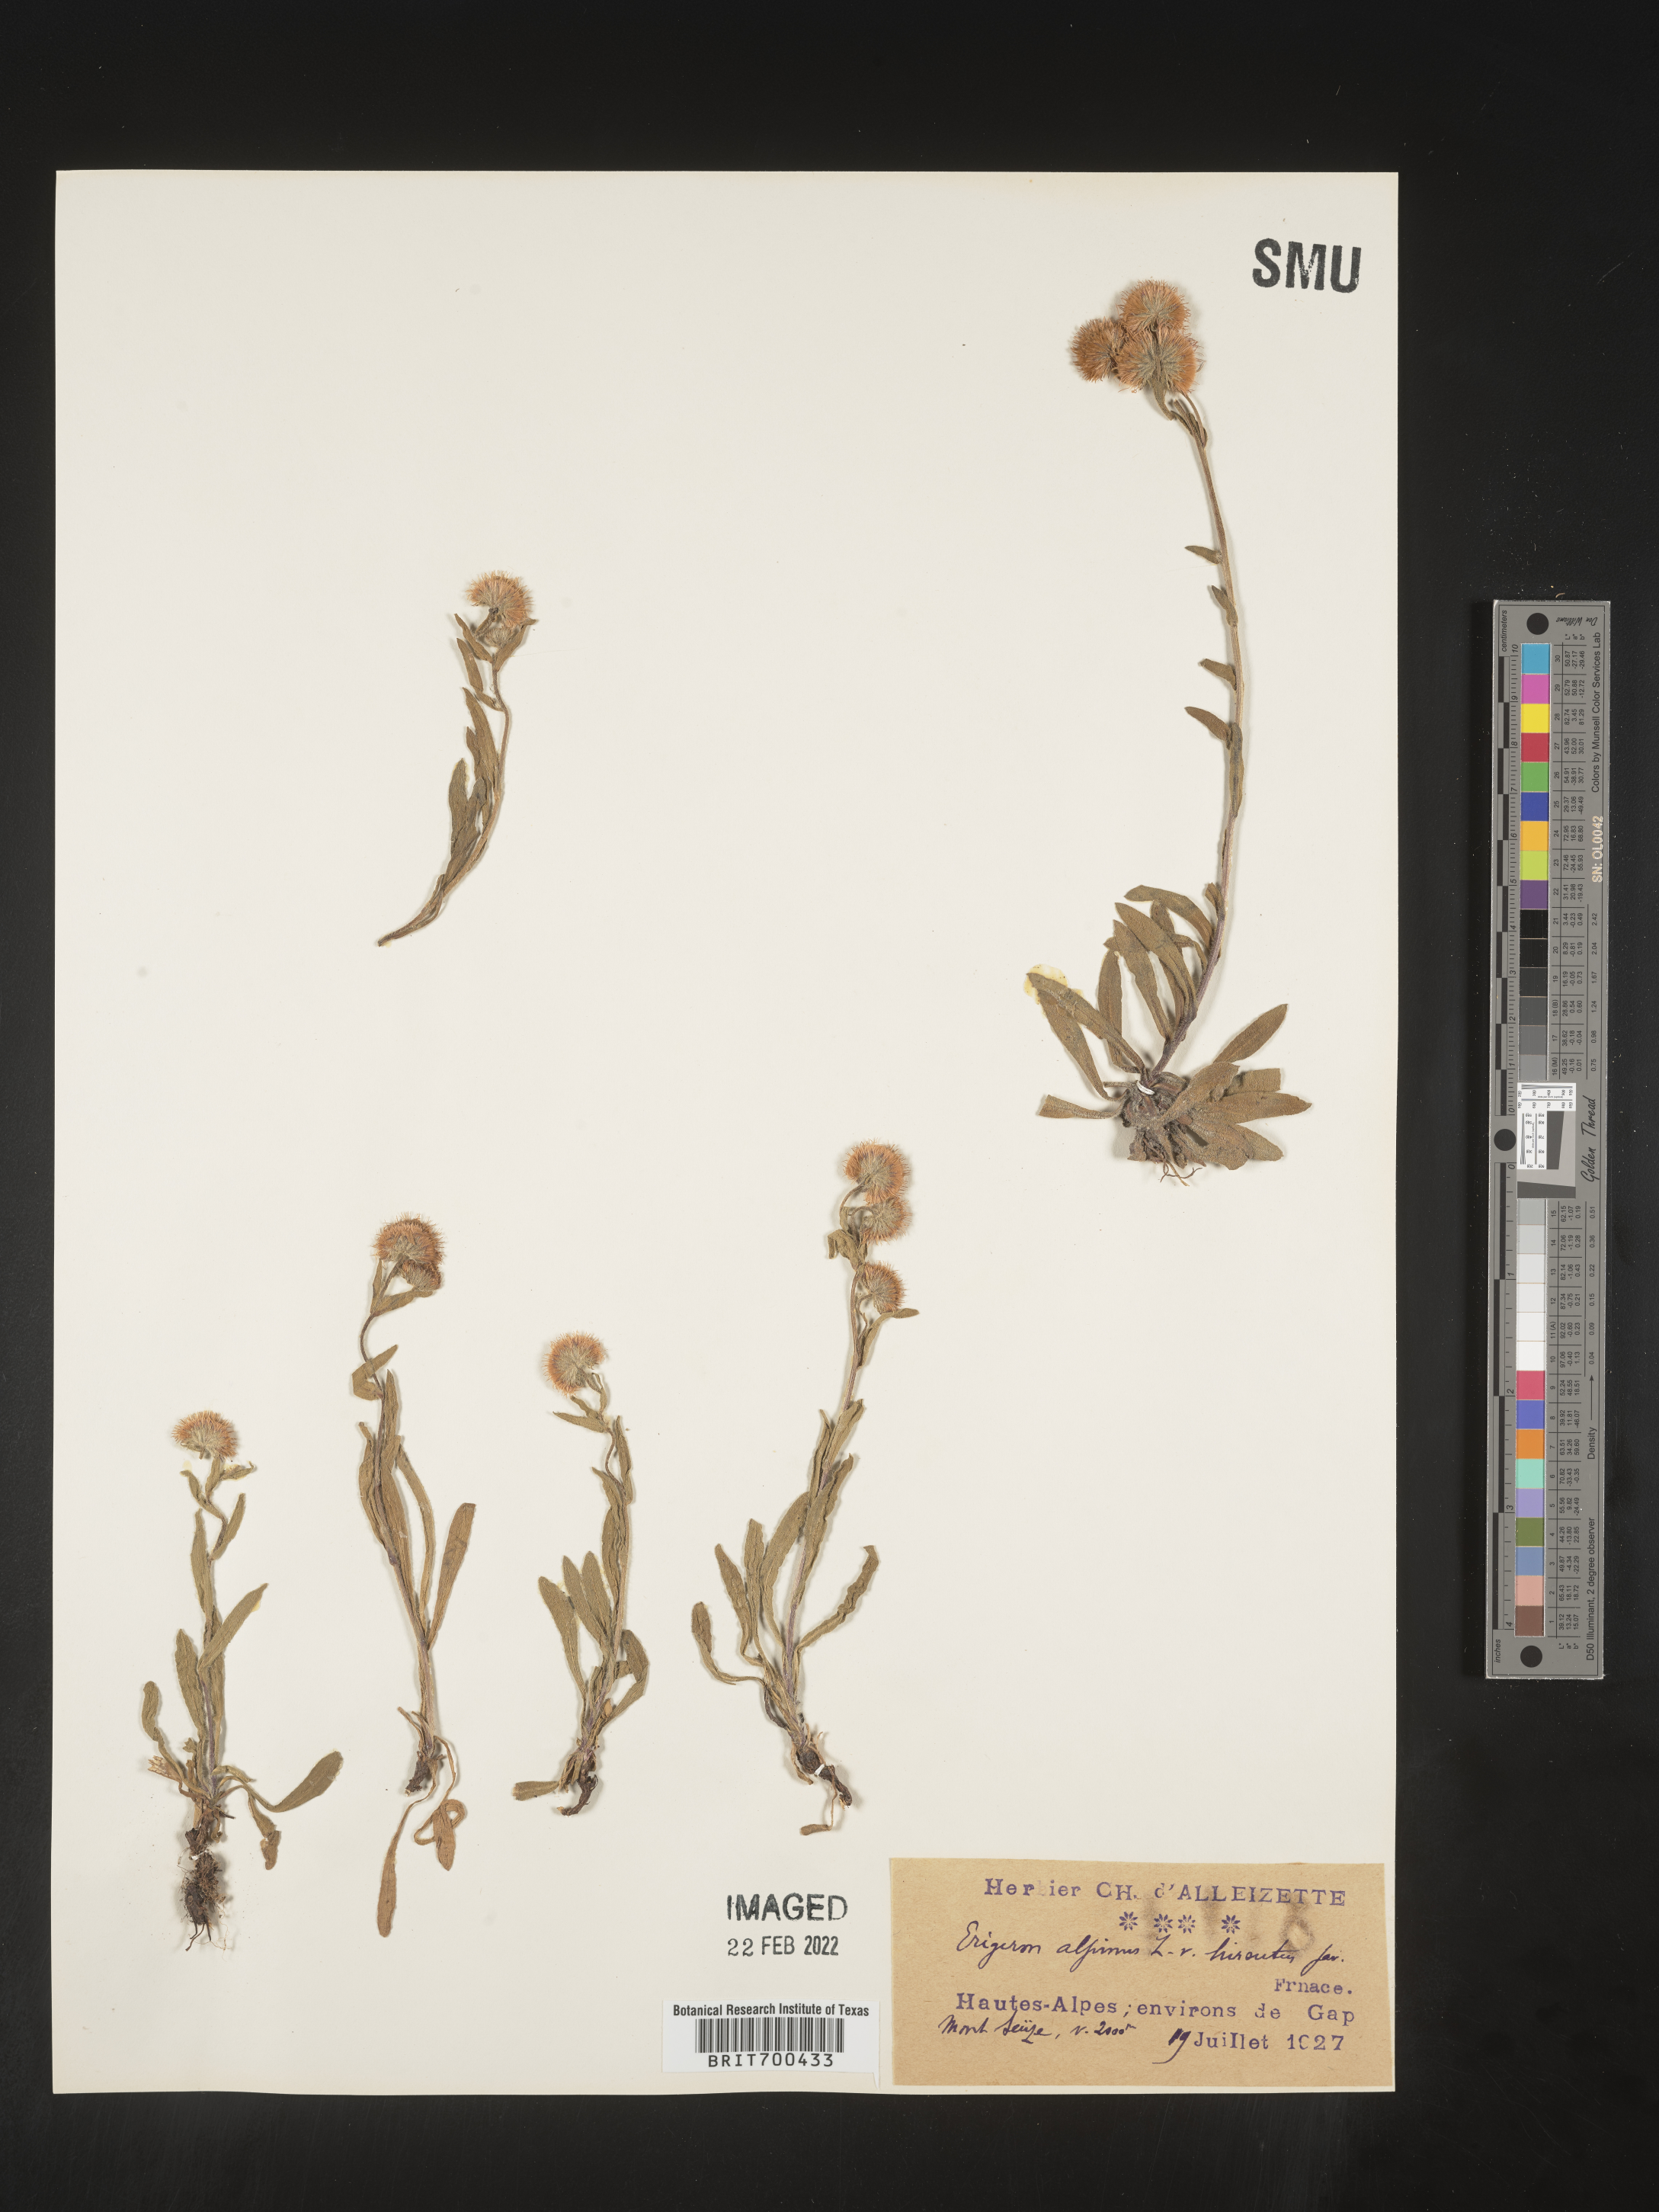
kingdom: Plantae
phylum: Tracheophyta
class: Magnoliopsida
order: Asterales
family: Asteraceae
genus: Erigeron
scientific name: Erigeron
